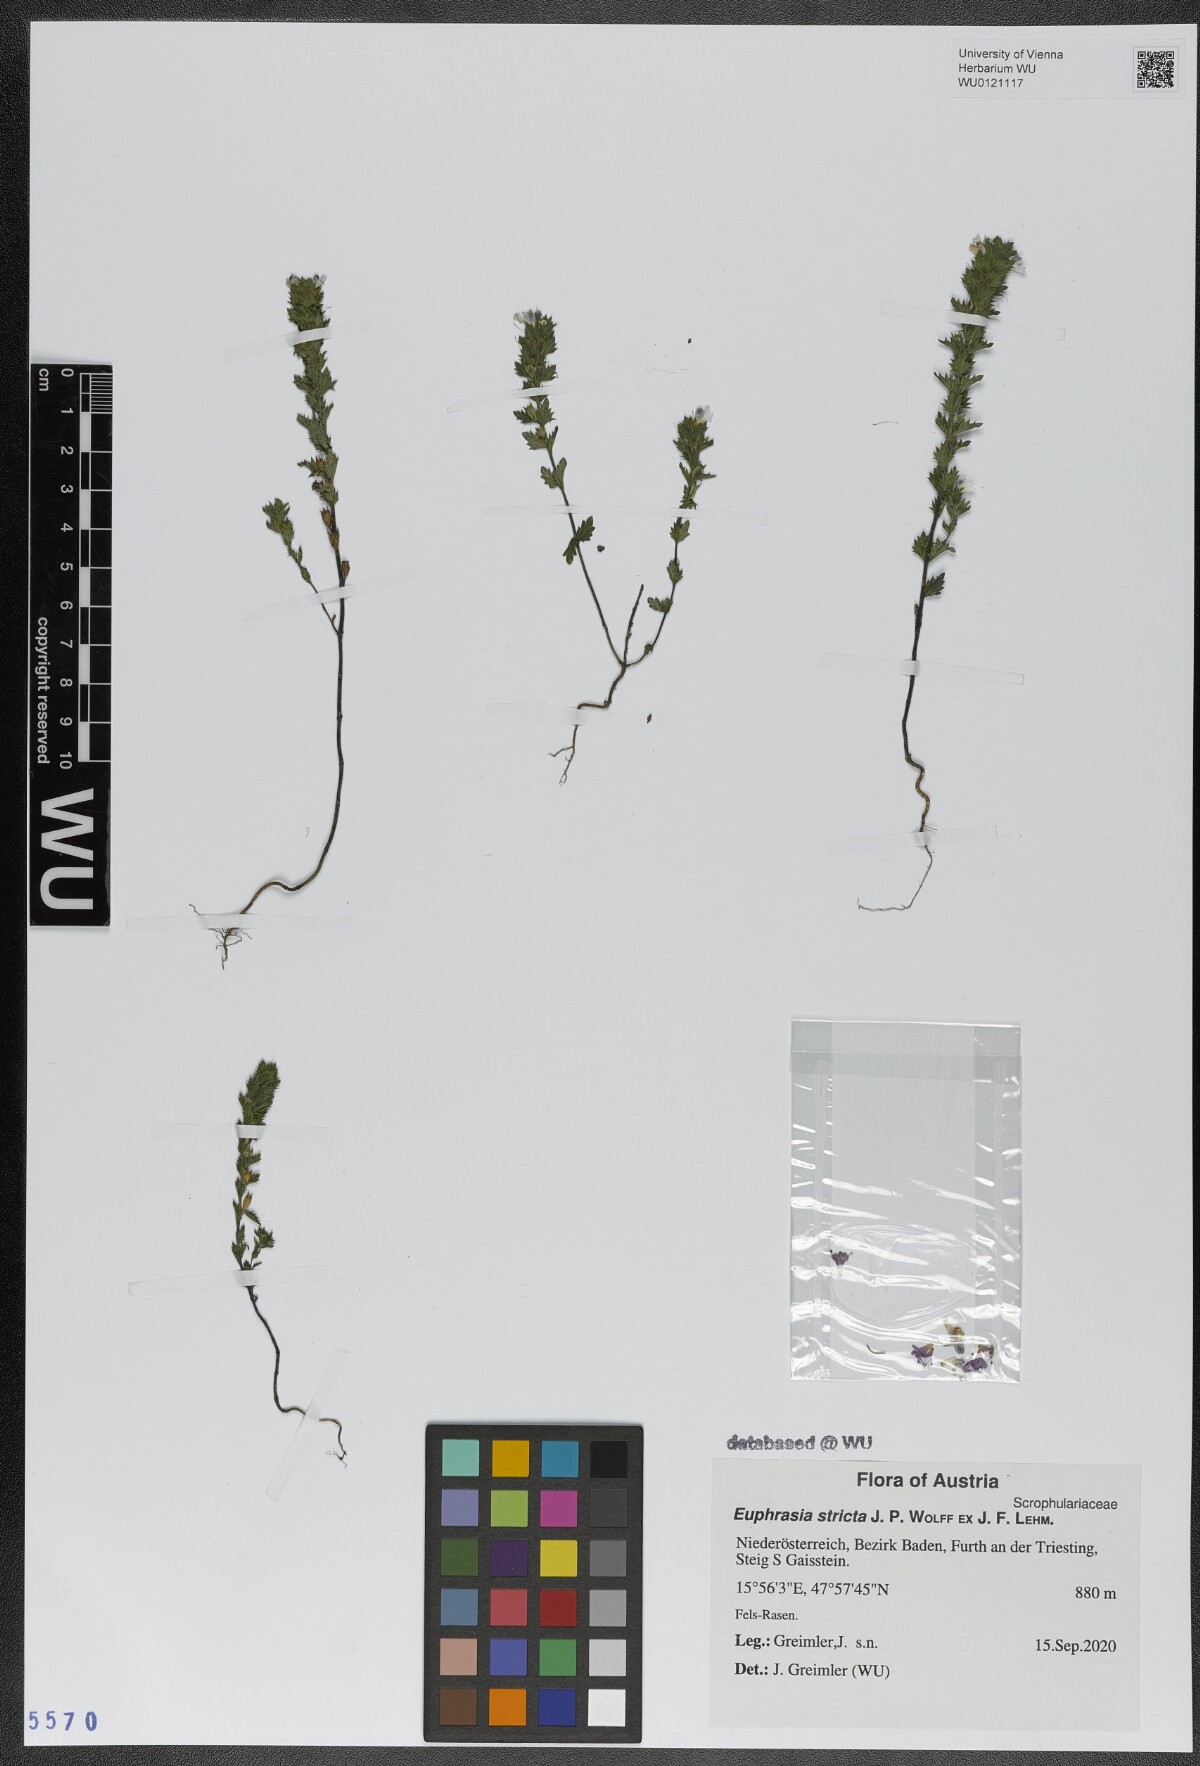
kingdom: Plantae
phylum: Tracheophyta
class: Magnoliopsida
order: Lamiales
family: Orobanchaceae
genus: Euphrasia
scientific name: Euphrasia stricta
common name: Drug eyebright
